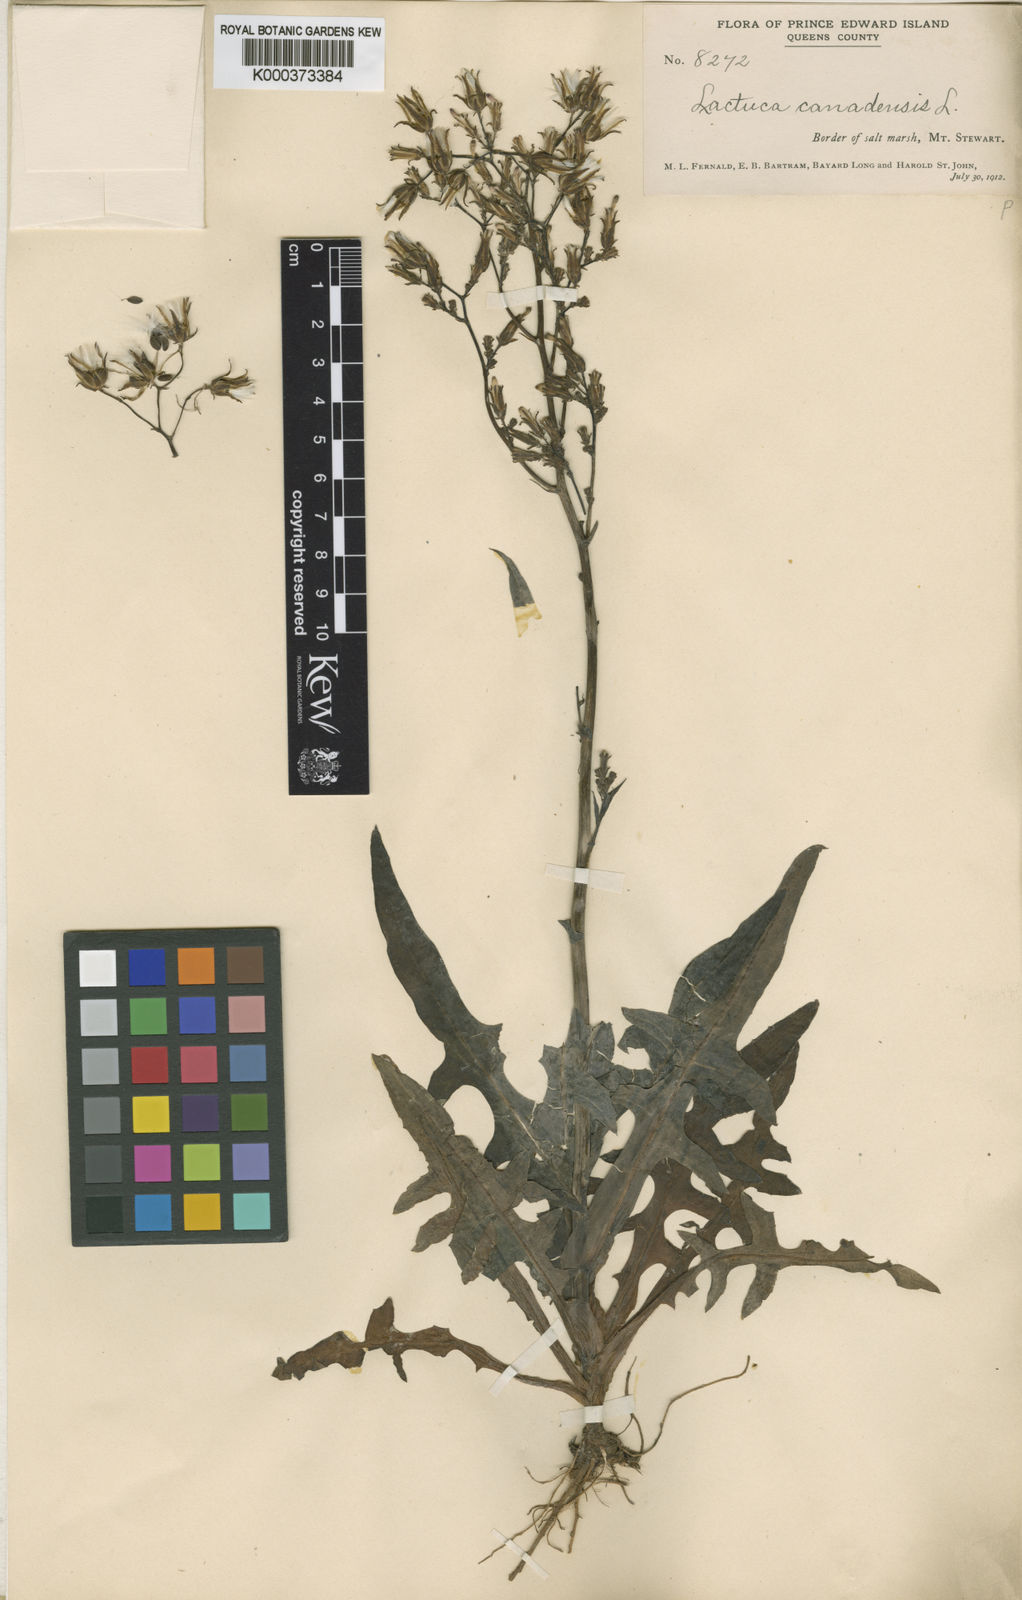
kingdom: Plantae
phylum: Tracheophyta
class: Magnoliopsida
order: Asterales
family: Asteraceae
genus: Lactuca
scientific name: Lactuca hirsuta
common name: Hairy lettuce
